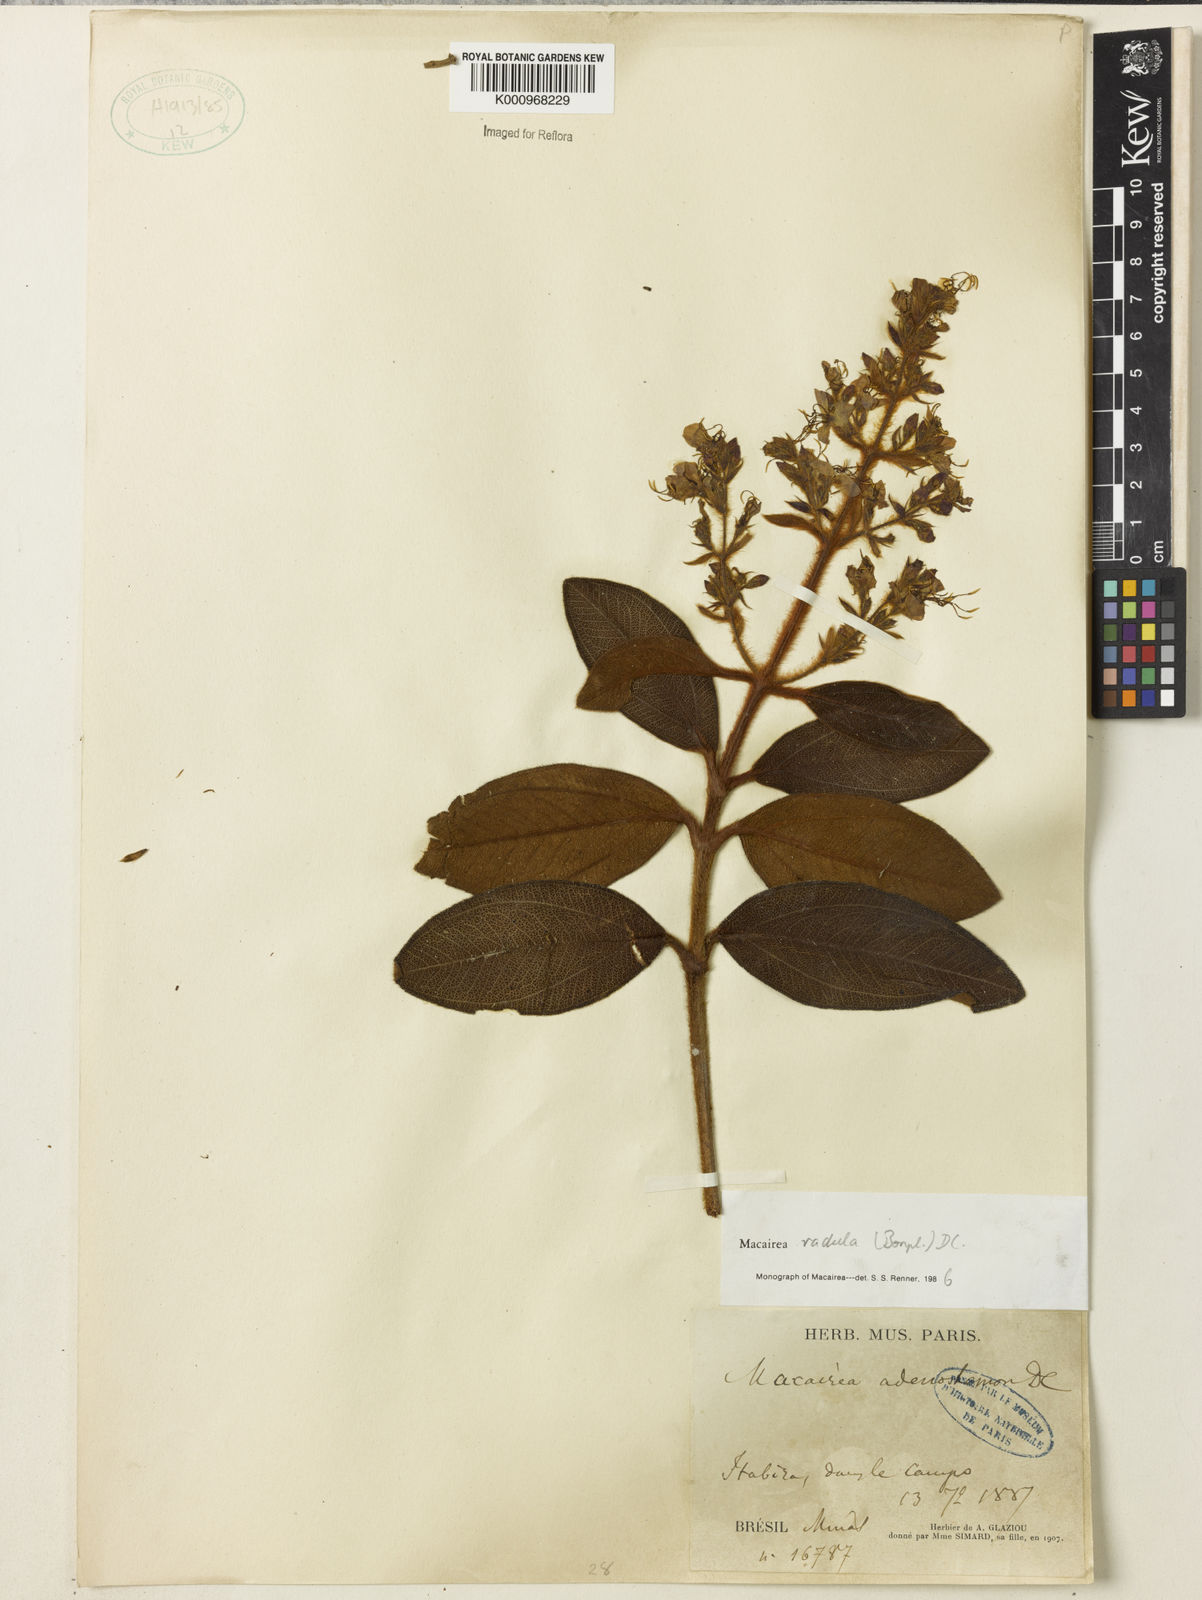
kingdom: Plantae
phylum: Tracheophyta
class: Magnoliopsida
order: Myrtales
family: Melastomataceae
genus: Macairea
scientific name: Macairea radula
